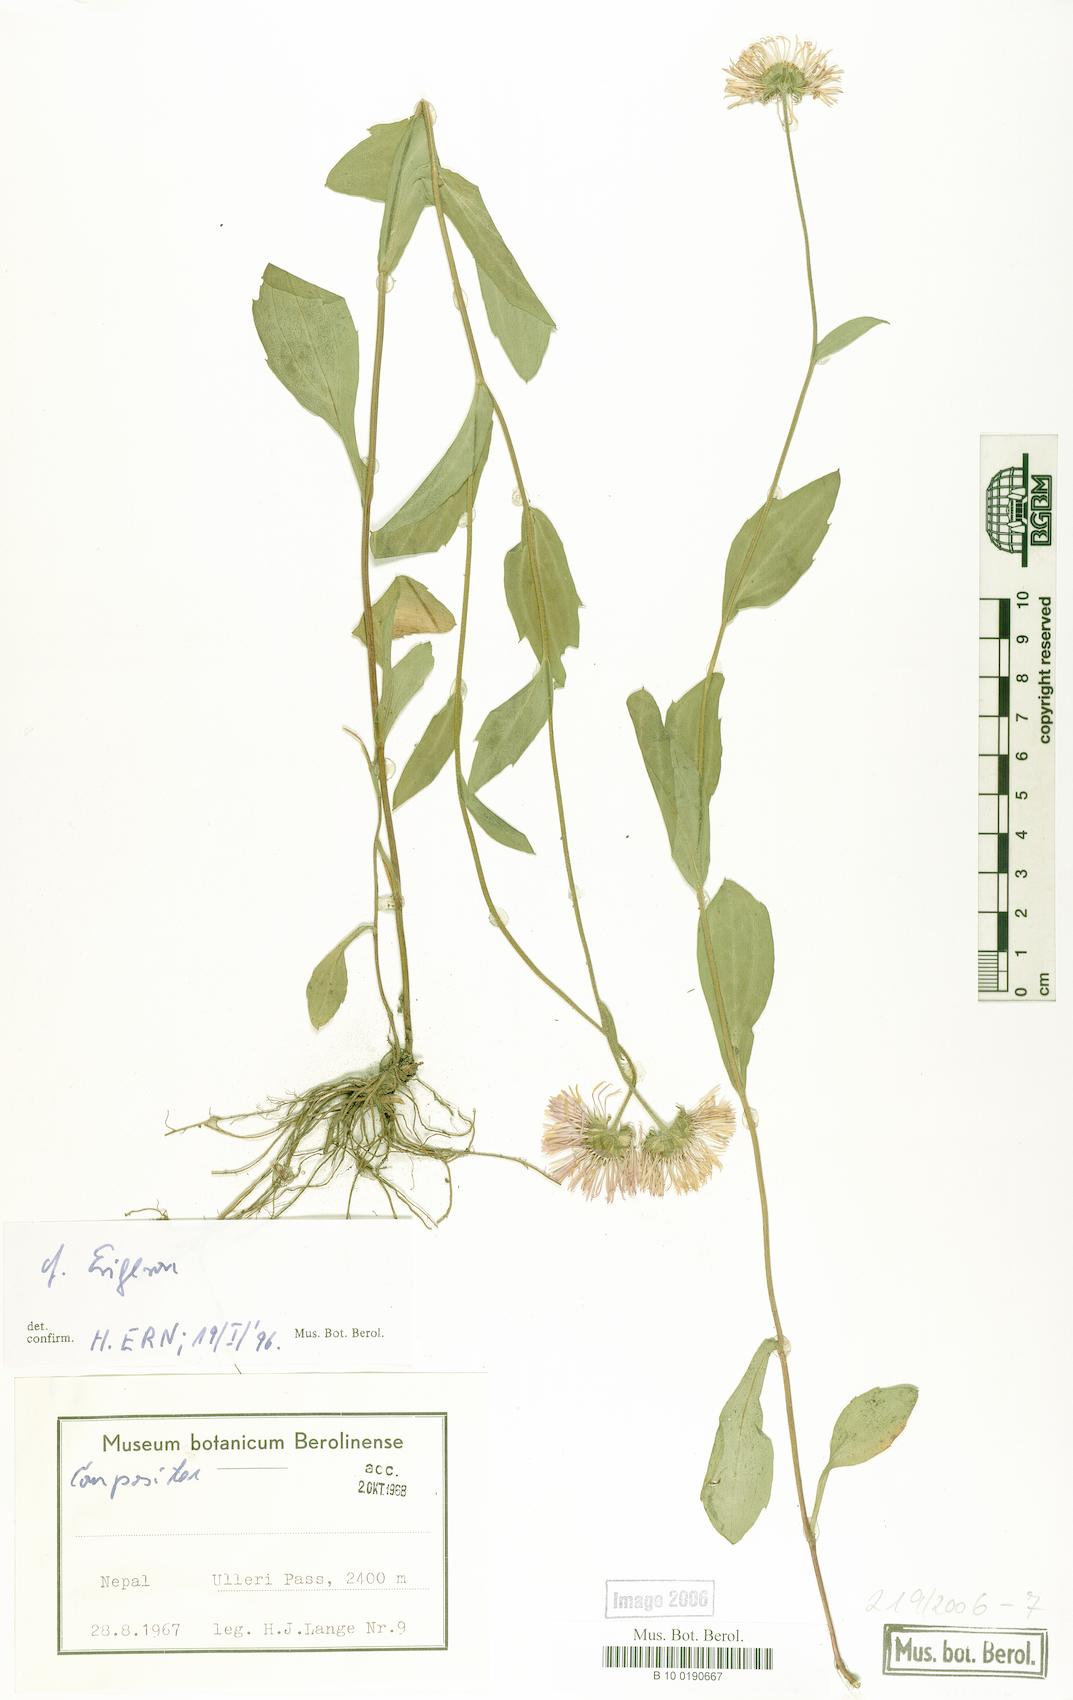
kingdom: Plantae
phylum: Tracheophyta
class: Magnoliopsida
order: Asterales
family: Asteraceae
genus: Erigeron
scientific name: Erigeron
